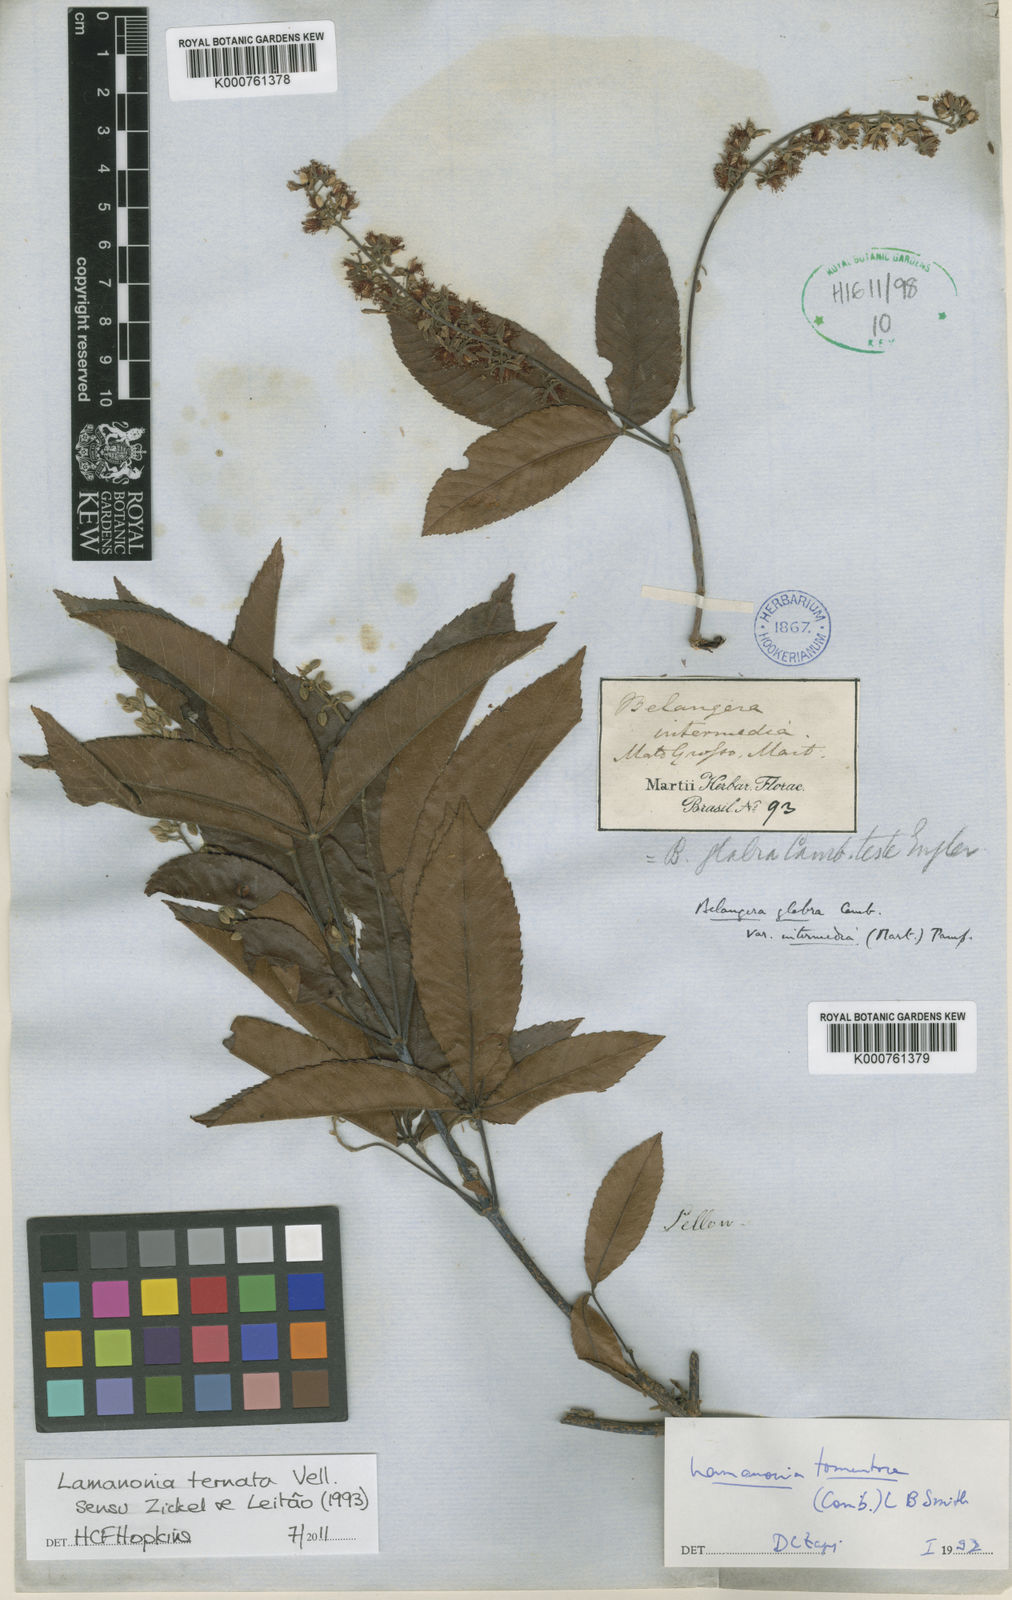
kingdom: Plantae
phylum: Tracheophyta
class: Magnoliopsida
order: Oxalidales
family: Cunoniaceae
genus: Lamanonia
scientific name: Lamanonia ternata
